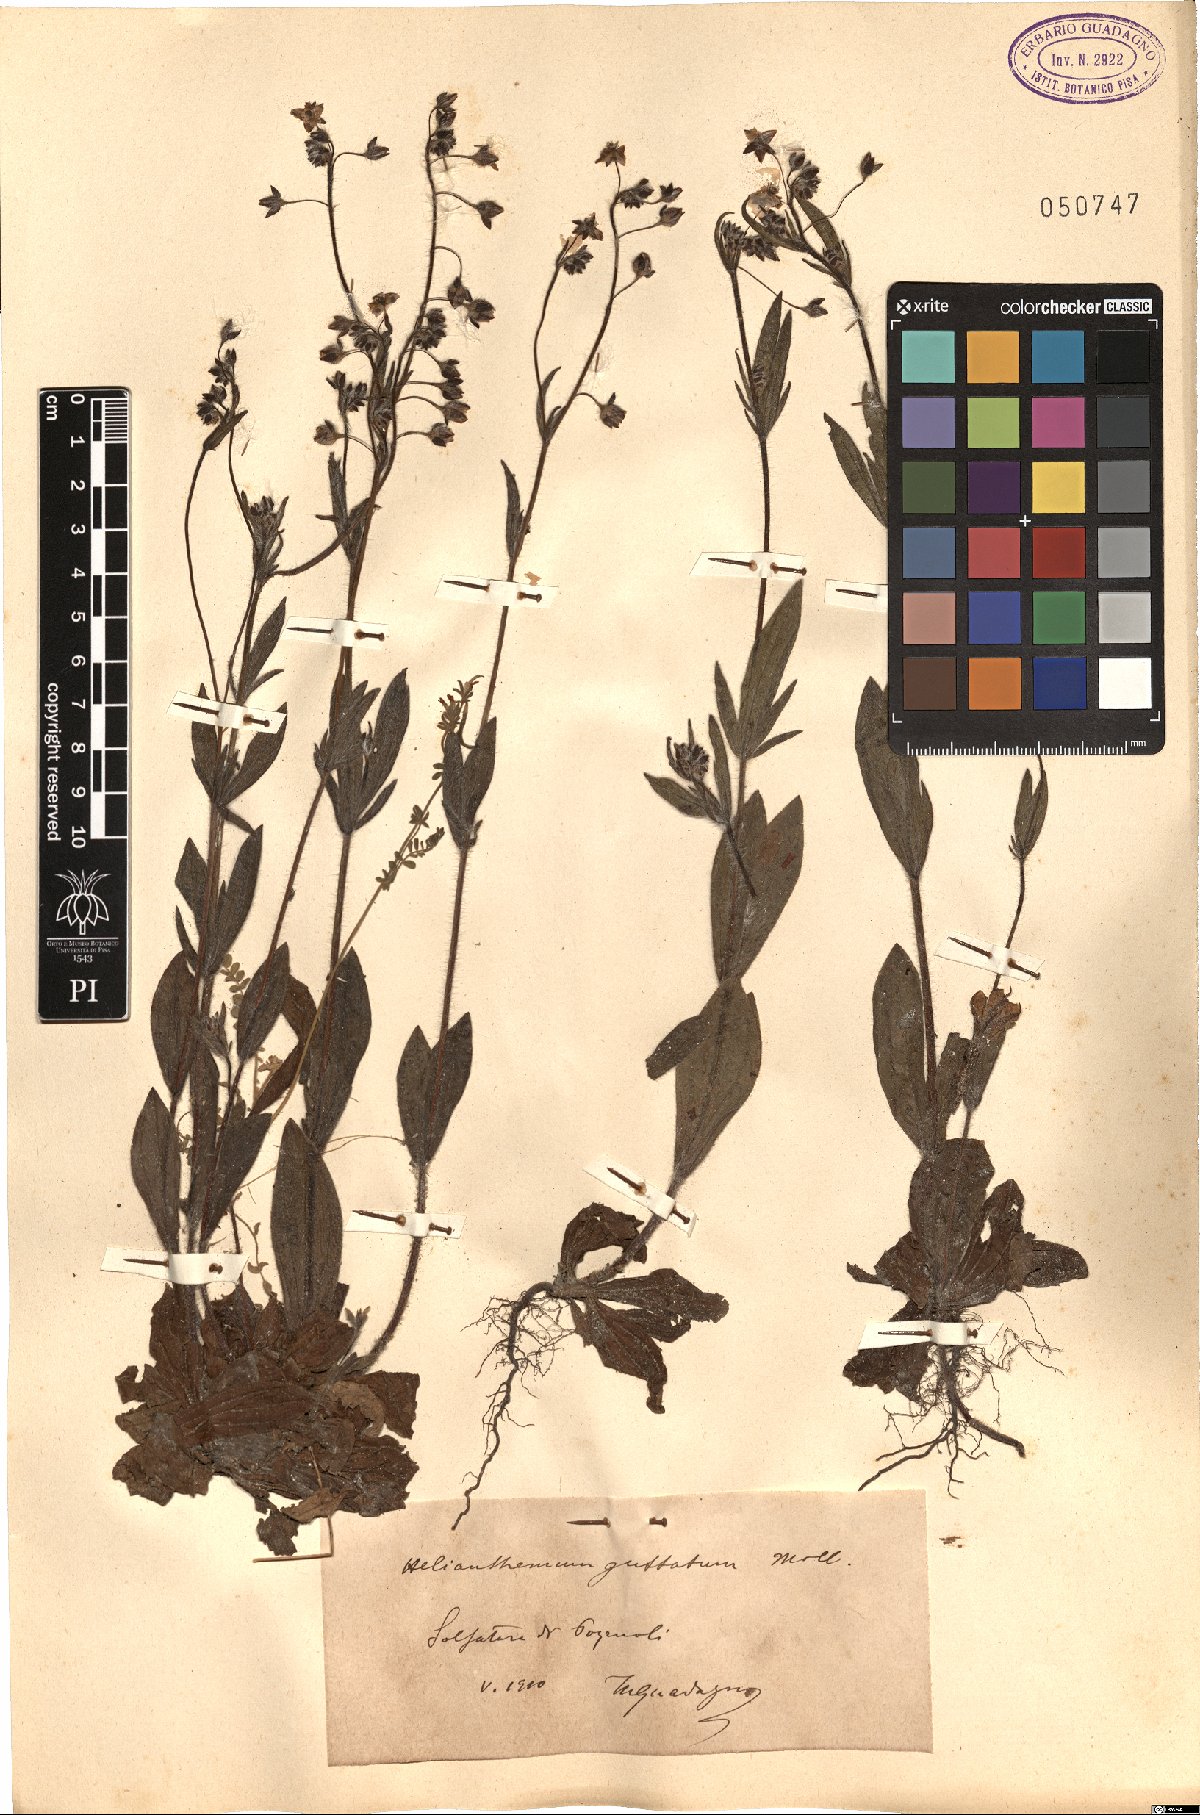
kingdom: Plantae
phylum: Tracheophyta
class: Magnoliopsida
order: Malvales
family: Cistaceae
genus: Tuberaria
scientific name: Tuberaria guttata
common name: Spotted rock-rose
